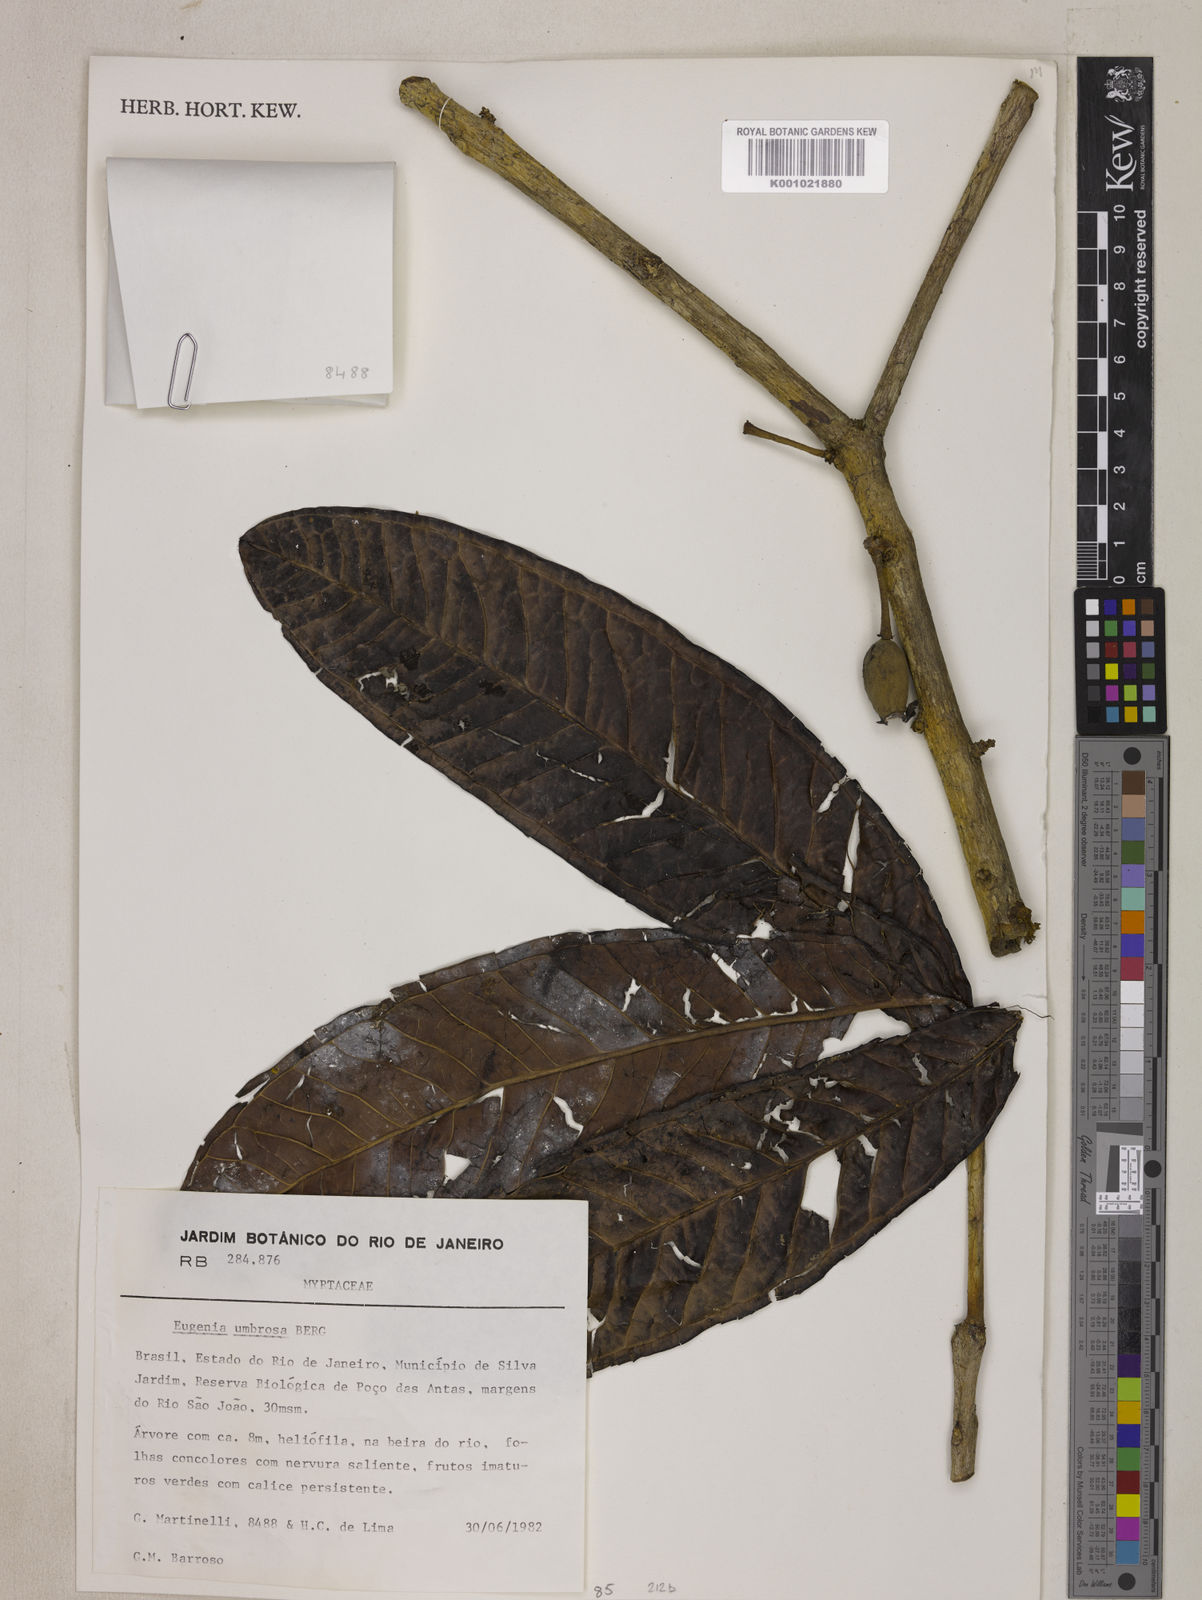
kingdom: Plantae
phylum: Tracheophyta
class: Magnoliopsida
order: Myrtales
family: Myrtaceae
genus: Eugenia
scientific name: Eugenia umbrosa
